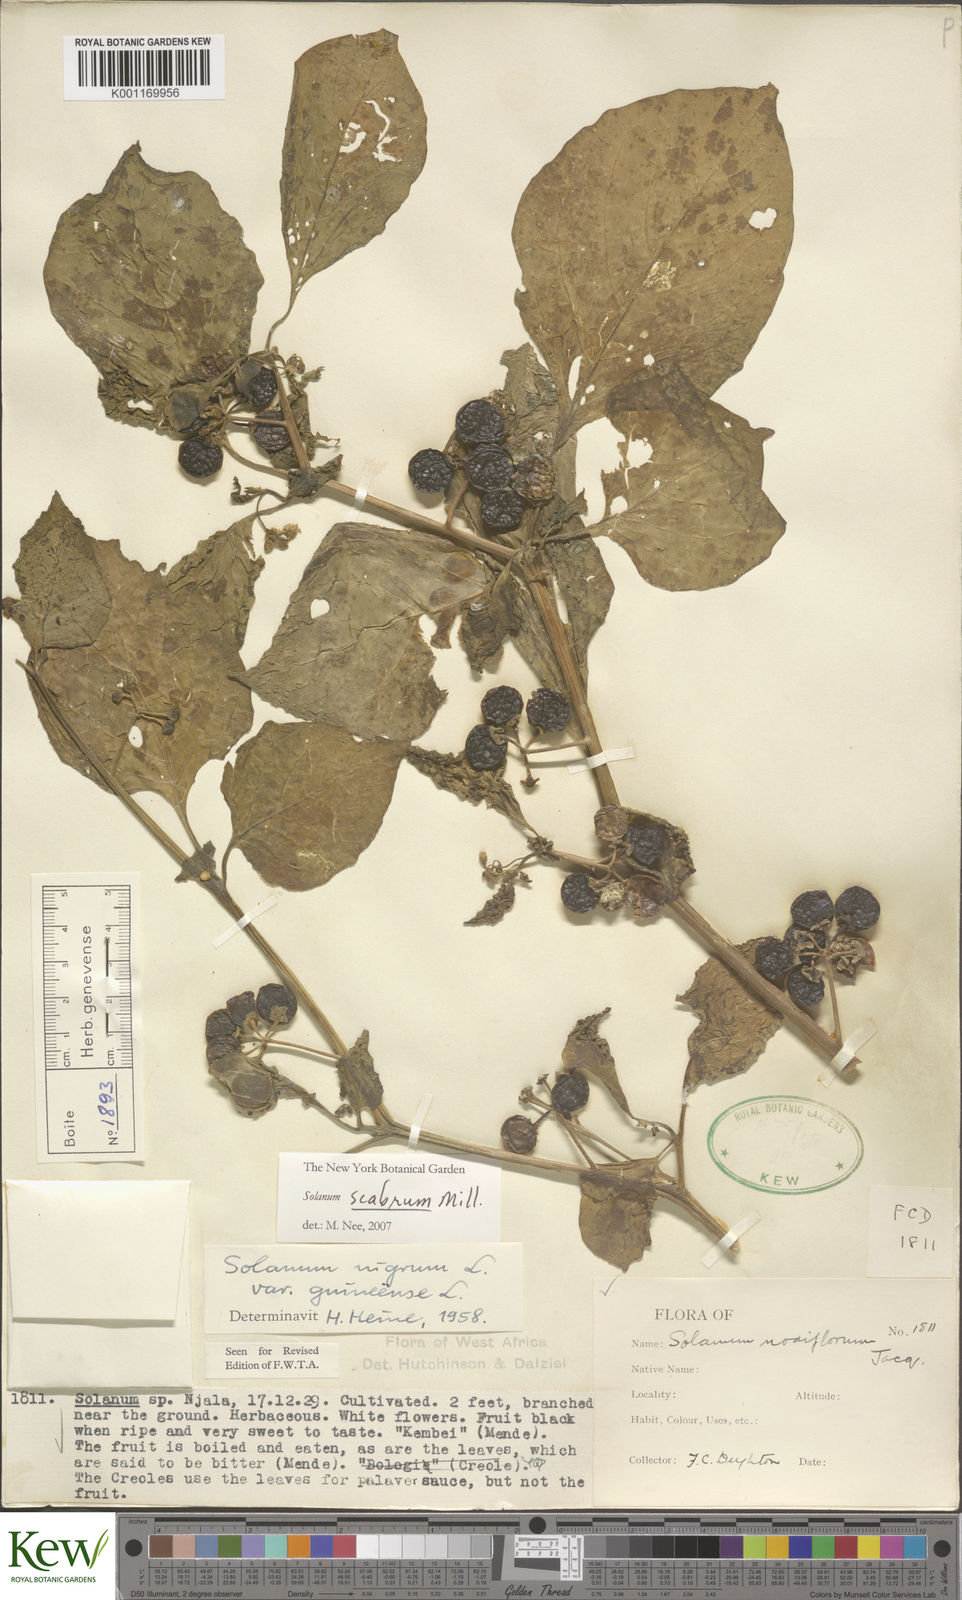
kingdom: Plantae
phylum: Tracheophyta
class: Magnoliopsida
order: Solanales
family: Solanaceae
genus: Solanum
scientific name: Solanum scabrum
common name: Garden-huckleberry
